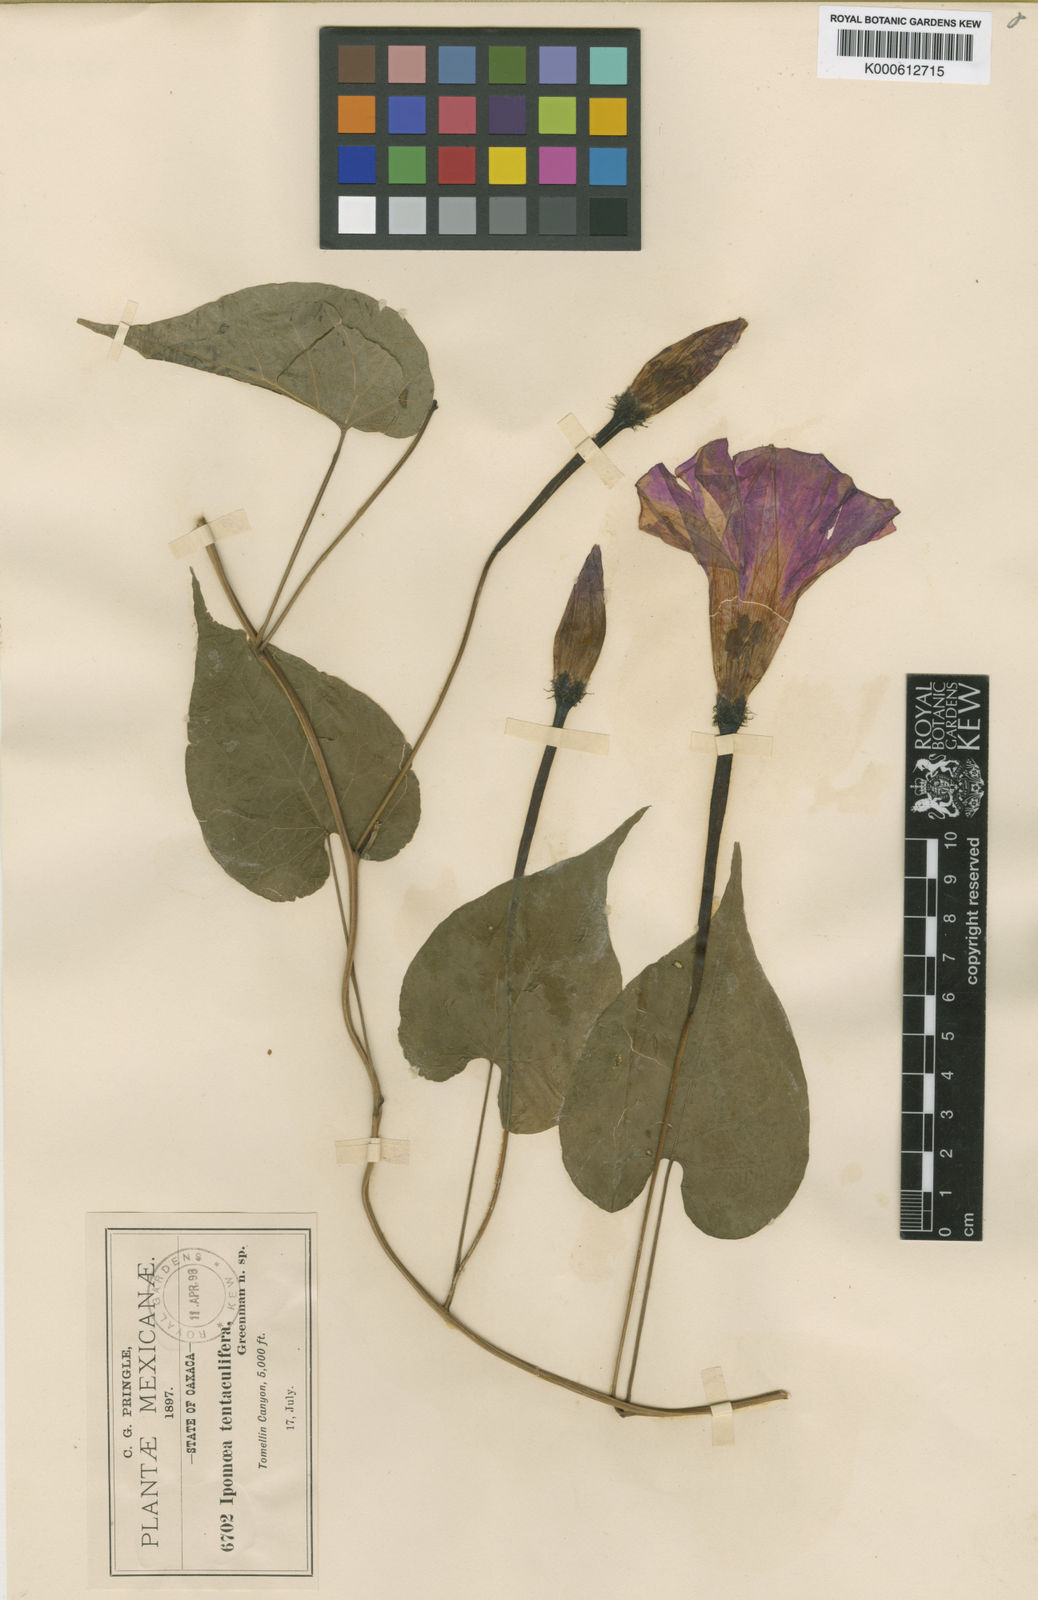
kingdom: Plantae
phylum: Tracheophyta
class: Magnoliopsida
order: Solanales
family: Convolvulaceae
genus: Ipomoea
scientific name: Ipomoea tentaculifera
